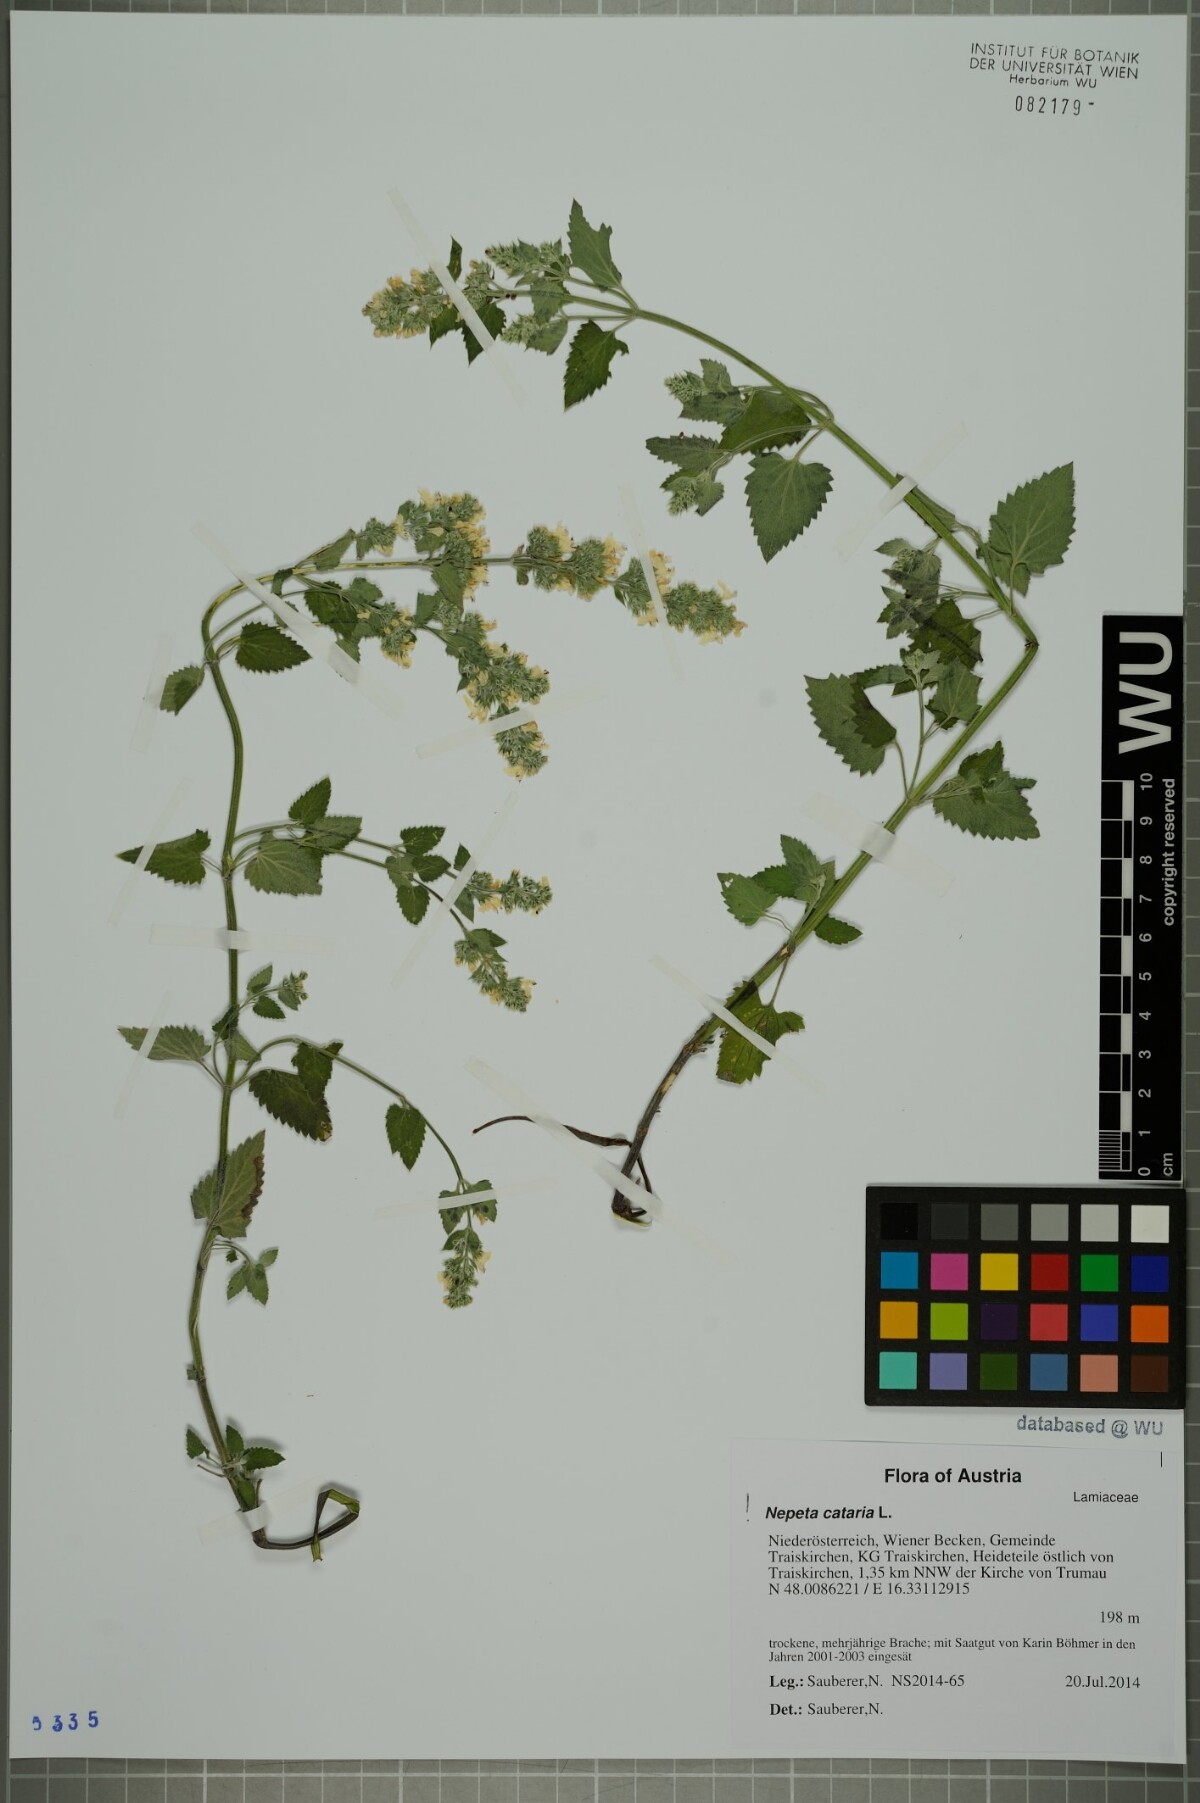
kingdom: Plantae
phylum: Tracheophyta
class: Magnoliopsida
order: Lamiales
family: Lamiaceae
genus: Nepeta
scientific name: Nepeta cataria
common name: Catnip
